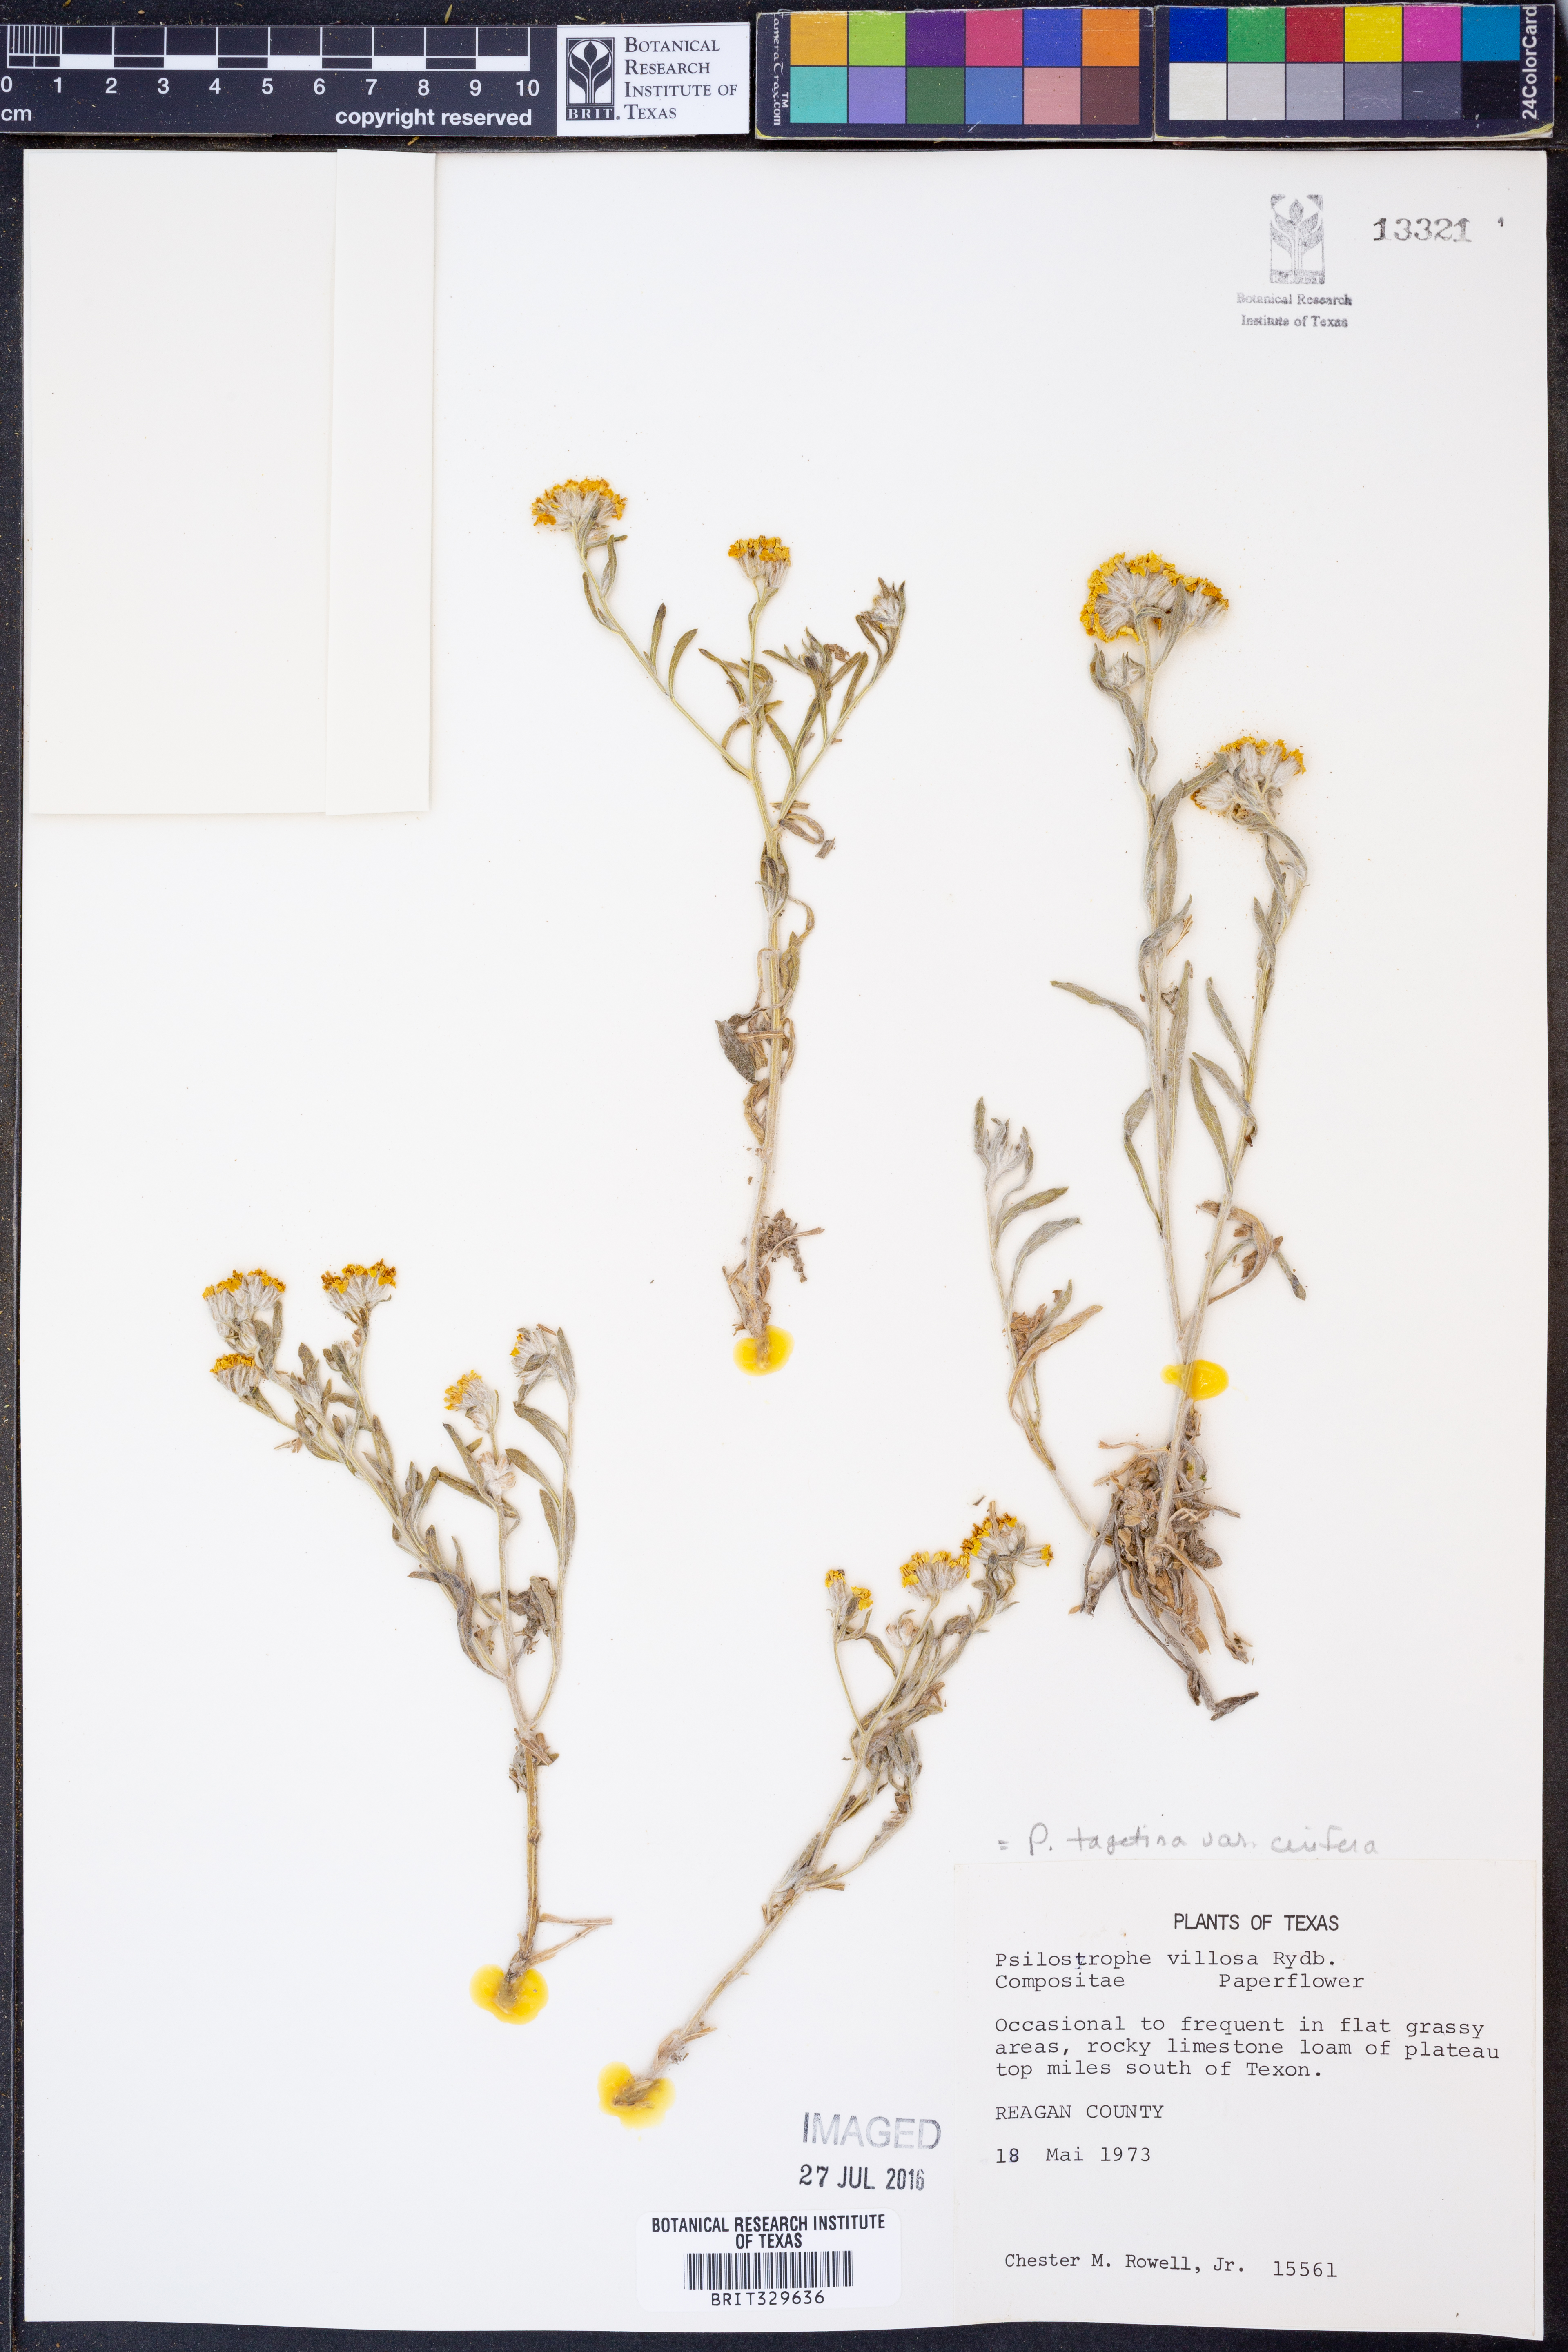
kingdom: Plantae
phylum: Tracheophyta
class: Magnoliopsida
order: Asterales
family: Asteraceae
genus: Psilostrophe
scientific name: Psilostrophe villosa
